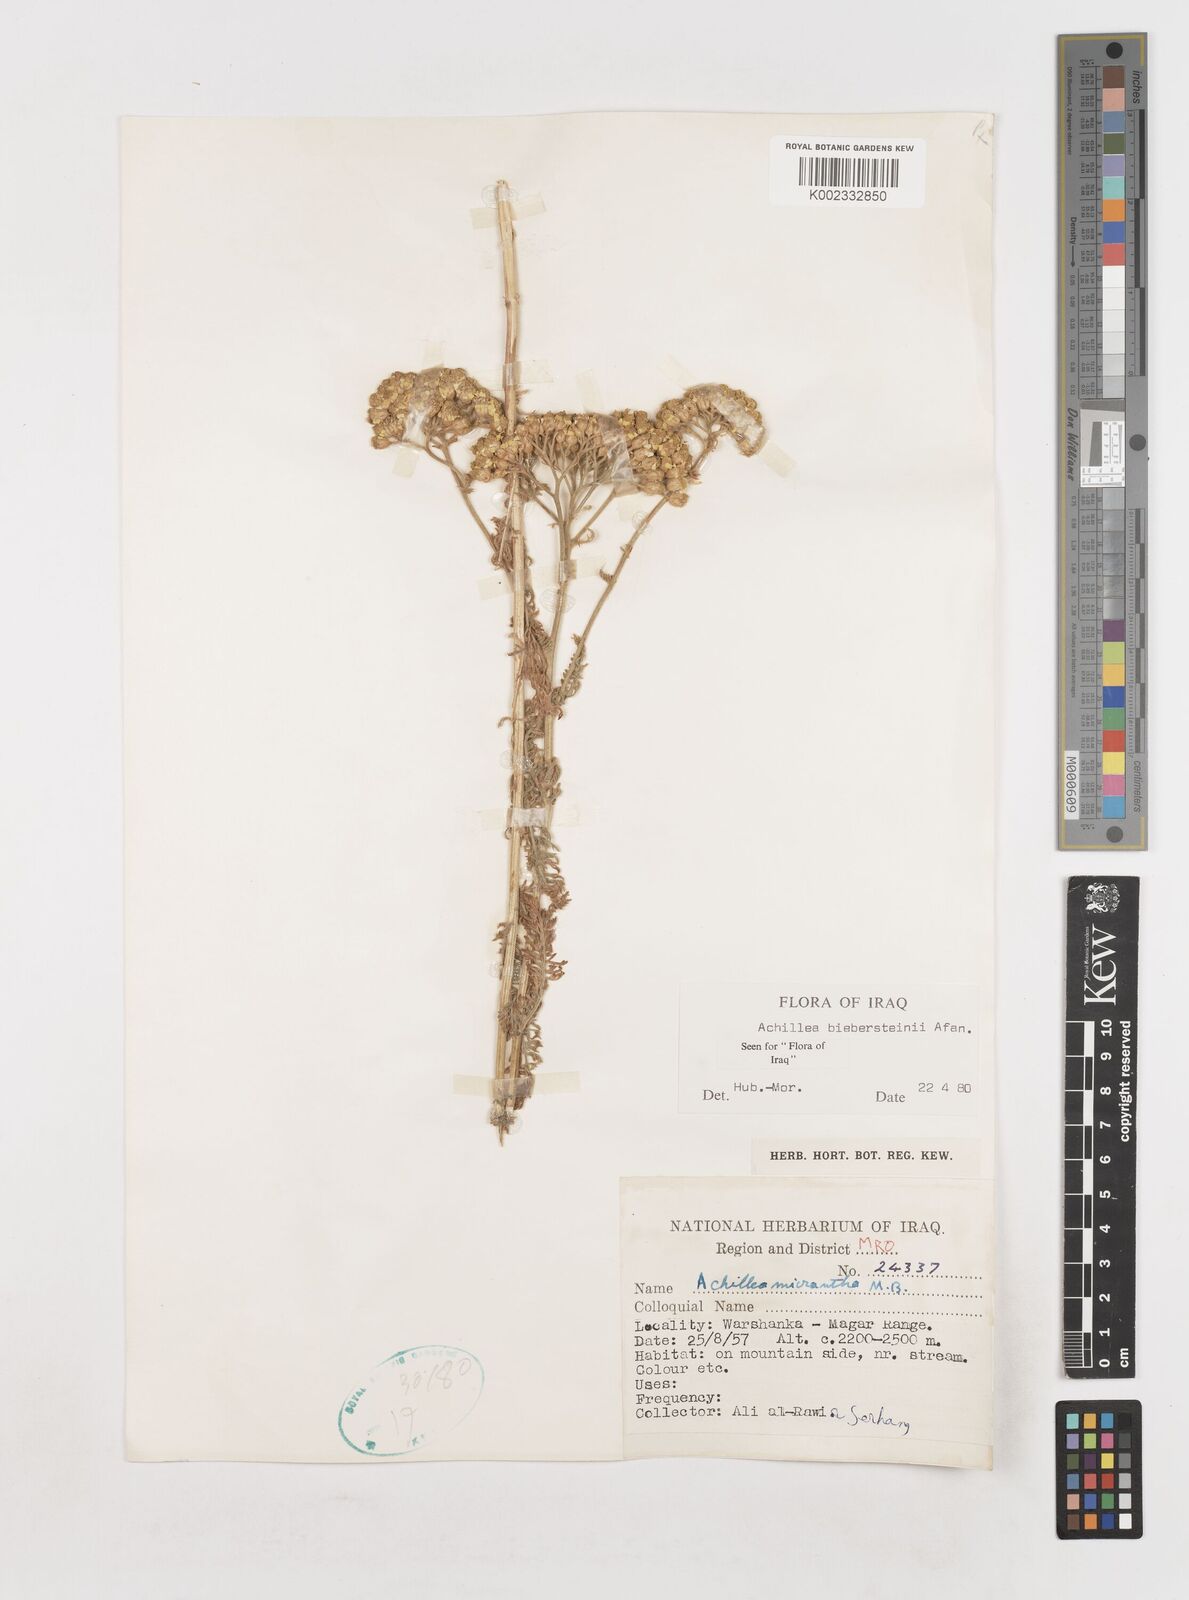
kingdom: Plantae
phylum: Tracheophyta
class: Magnoliopsida
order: Asterales
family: Asteraceae
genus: Achillea
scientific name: Achillea arabica
